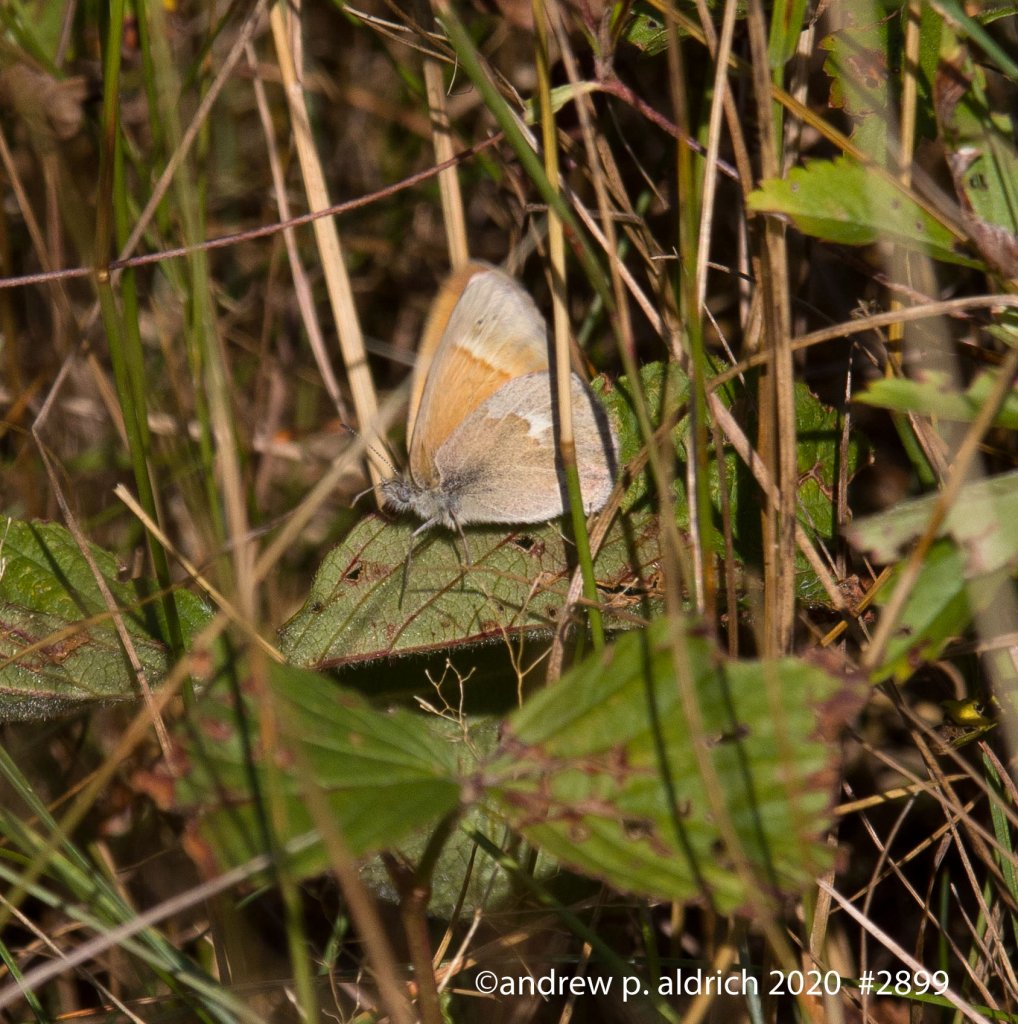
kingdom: Animalia
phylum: Arthropoda
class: Insecta
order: Lepidoptera
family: Nymphalidae
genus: Coenonympha
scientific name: Coenonympha tullia
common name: Large Heath
